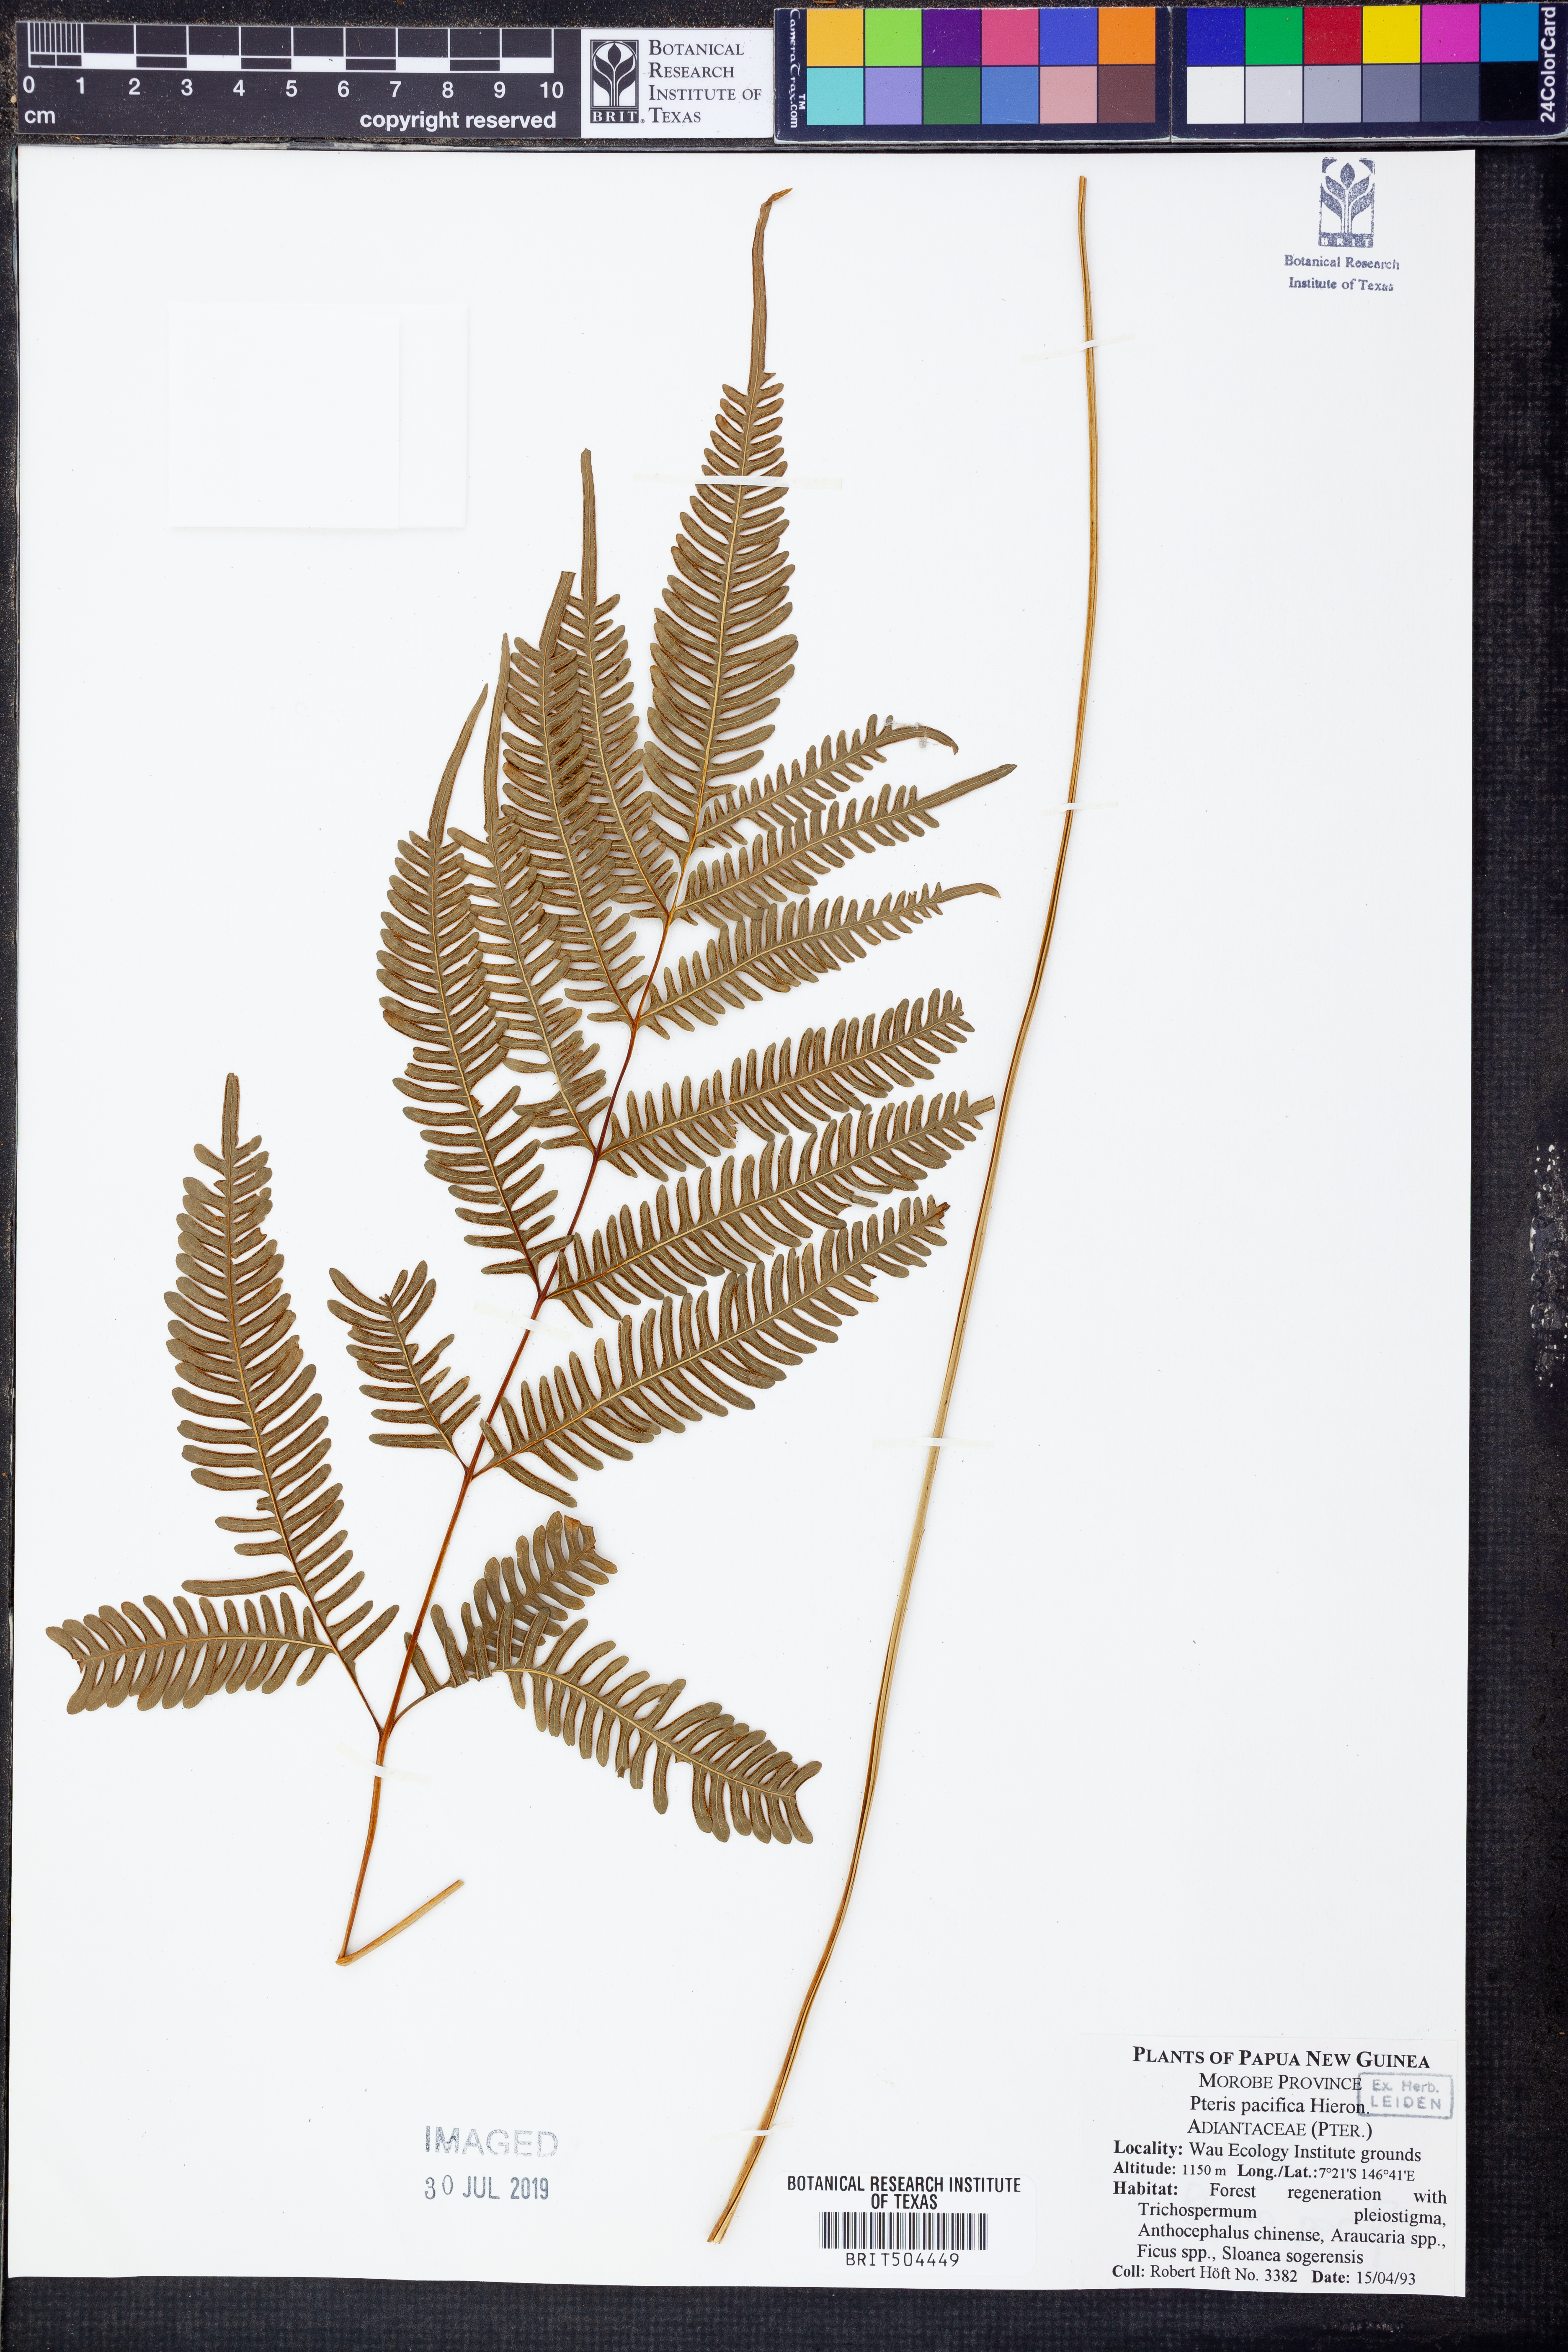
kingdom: Plantae
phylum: Tracheophyta
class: Polypodiopsida
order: Polypodiales
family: Pteridaceae
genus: Pteris
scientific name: Pteris biaurita
